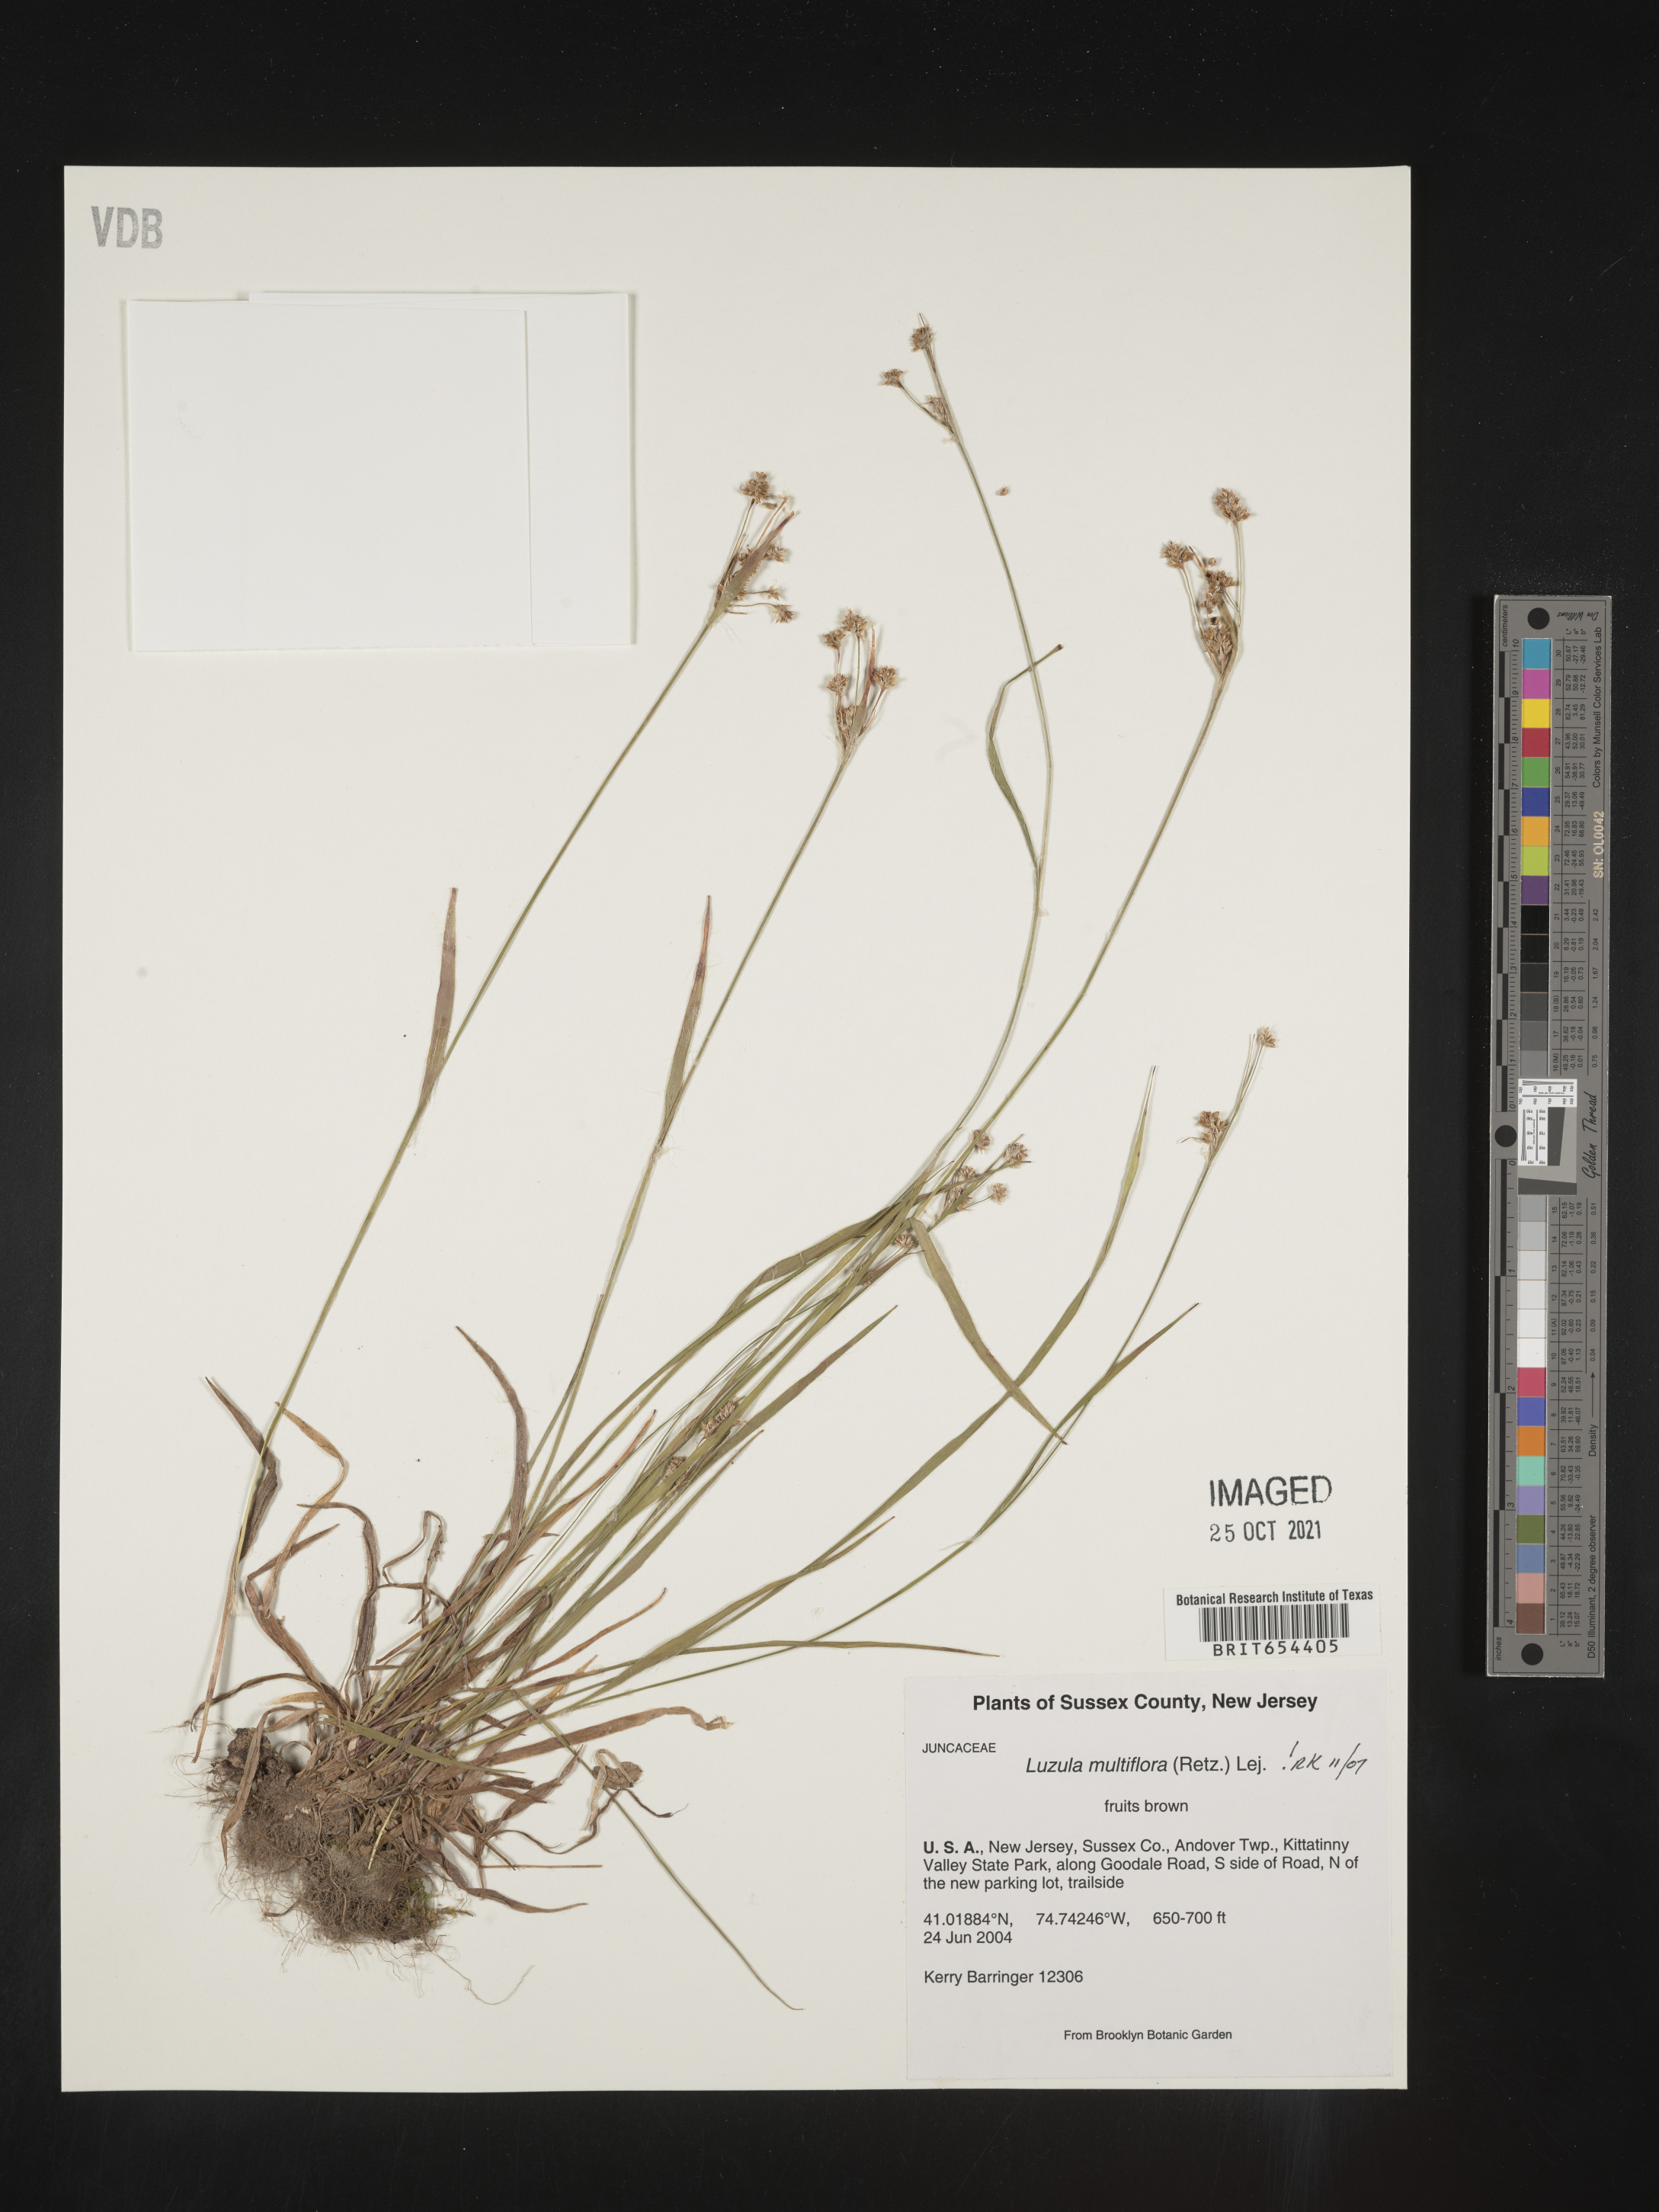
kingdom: Plantae
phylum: Tracheophyta
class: Liliopsida
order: Poales
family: Juncaceae
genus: Luzula
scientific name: Luzula multiflora
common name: Heath wood-rush
